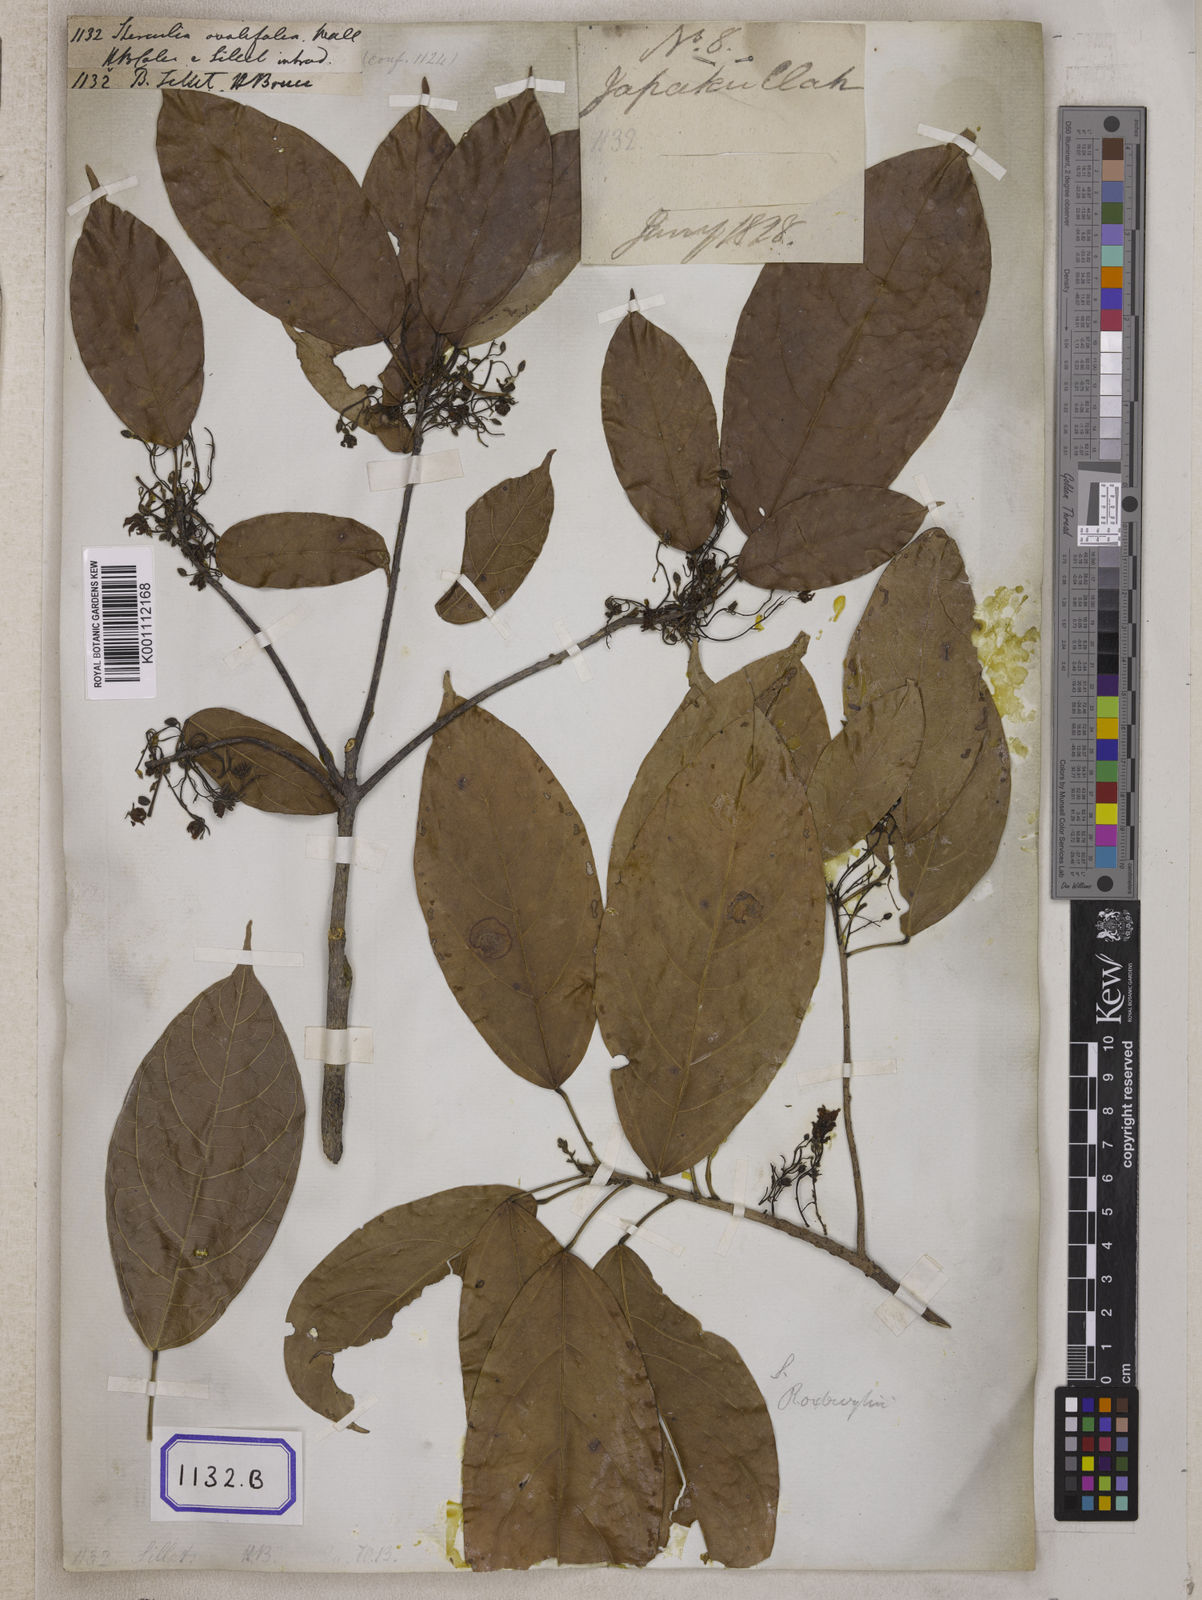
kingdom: Plantae
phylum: Tracheophyta
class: Magnoliopsida
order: Malvales
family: Malvaceae
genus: Sterculia
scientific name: Sterculia lanceifolia
